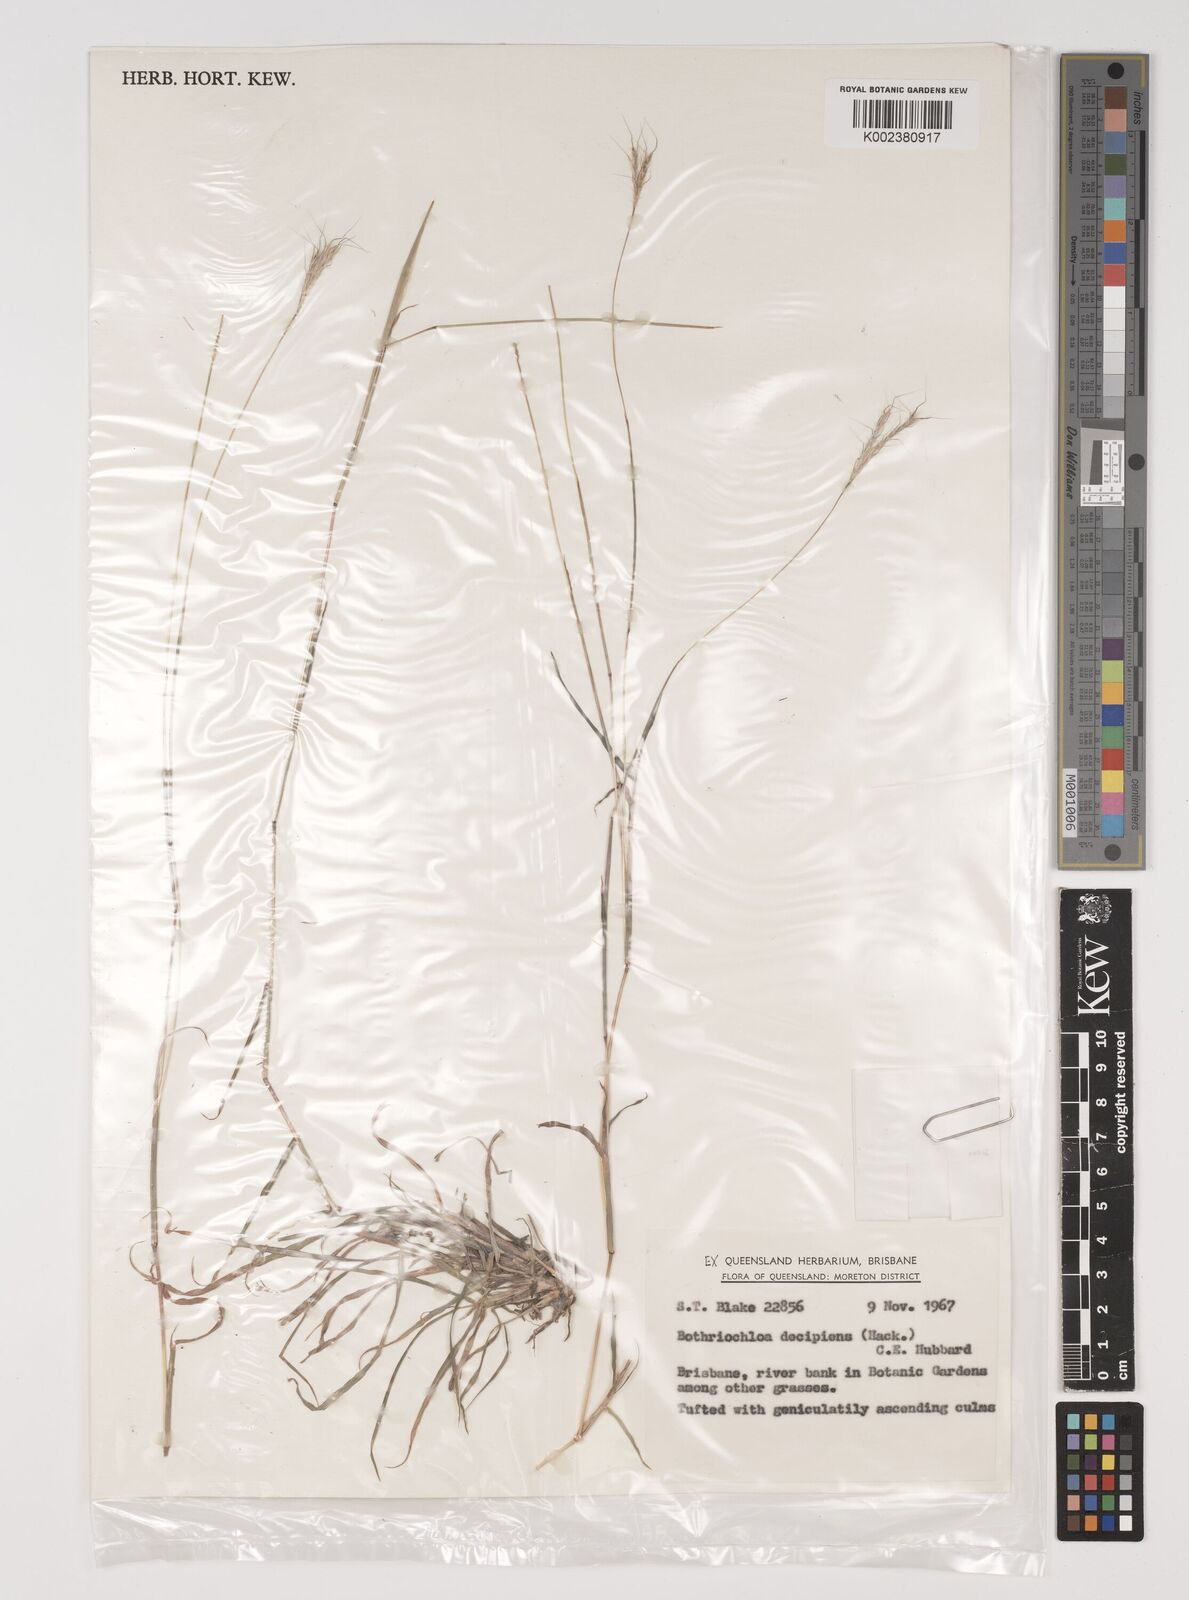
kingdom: Plantae
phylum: Tracheophyta
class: Liliopsida
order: Poales
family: Poaceae
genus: Bothriochloa
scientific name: Bothriochloa decipiens
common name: Pitted-bluegrass
